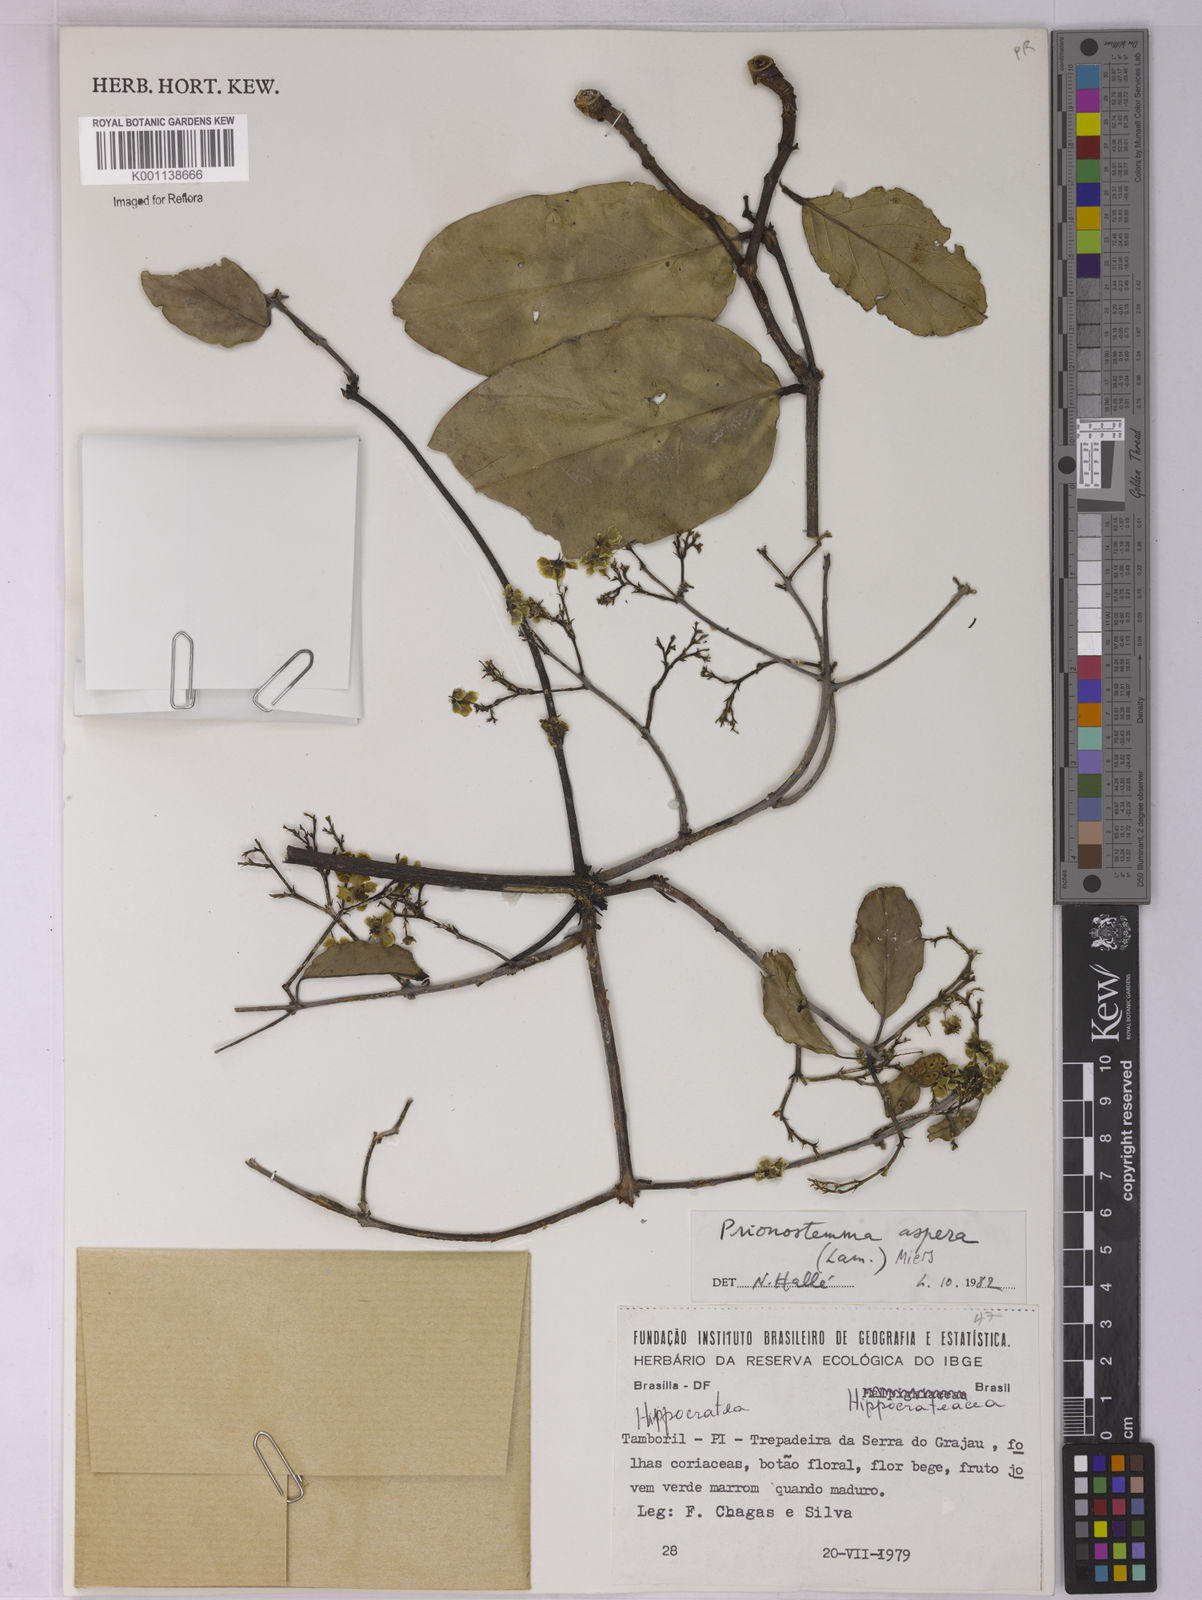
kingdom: Plantae
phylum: Tracheophyta
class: Magnoliopsida
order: Celastrales
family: Celastraceae
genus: Prionostemma
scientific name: Prionostemma aspera
